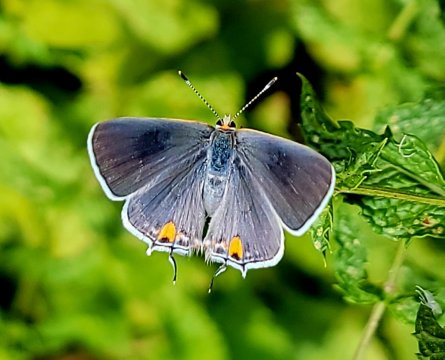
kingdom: Animalia
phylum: Arthropoda
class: Insecta
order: Lepidoptera
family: Lycaenidae
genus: Strymon
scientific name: Strymon melinus
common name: Gray Hairstreak
